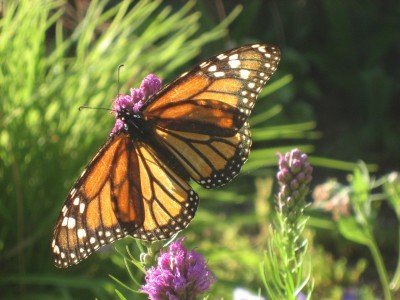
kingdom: Animalia
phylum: Arthropoda
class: Insecta
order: Lepidoptera
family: Nymphalidae
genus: Danaus
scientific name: Danaus plexippus
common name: Monarch
